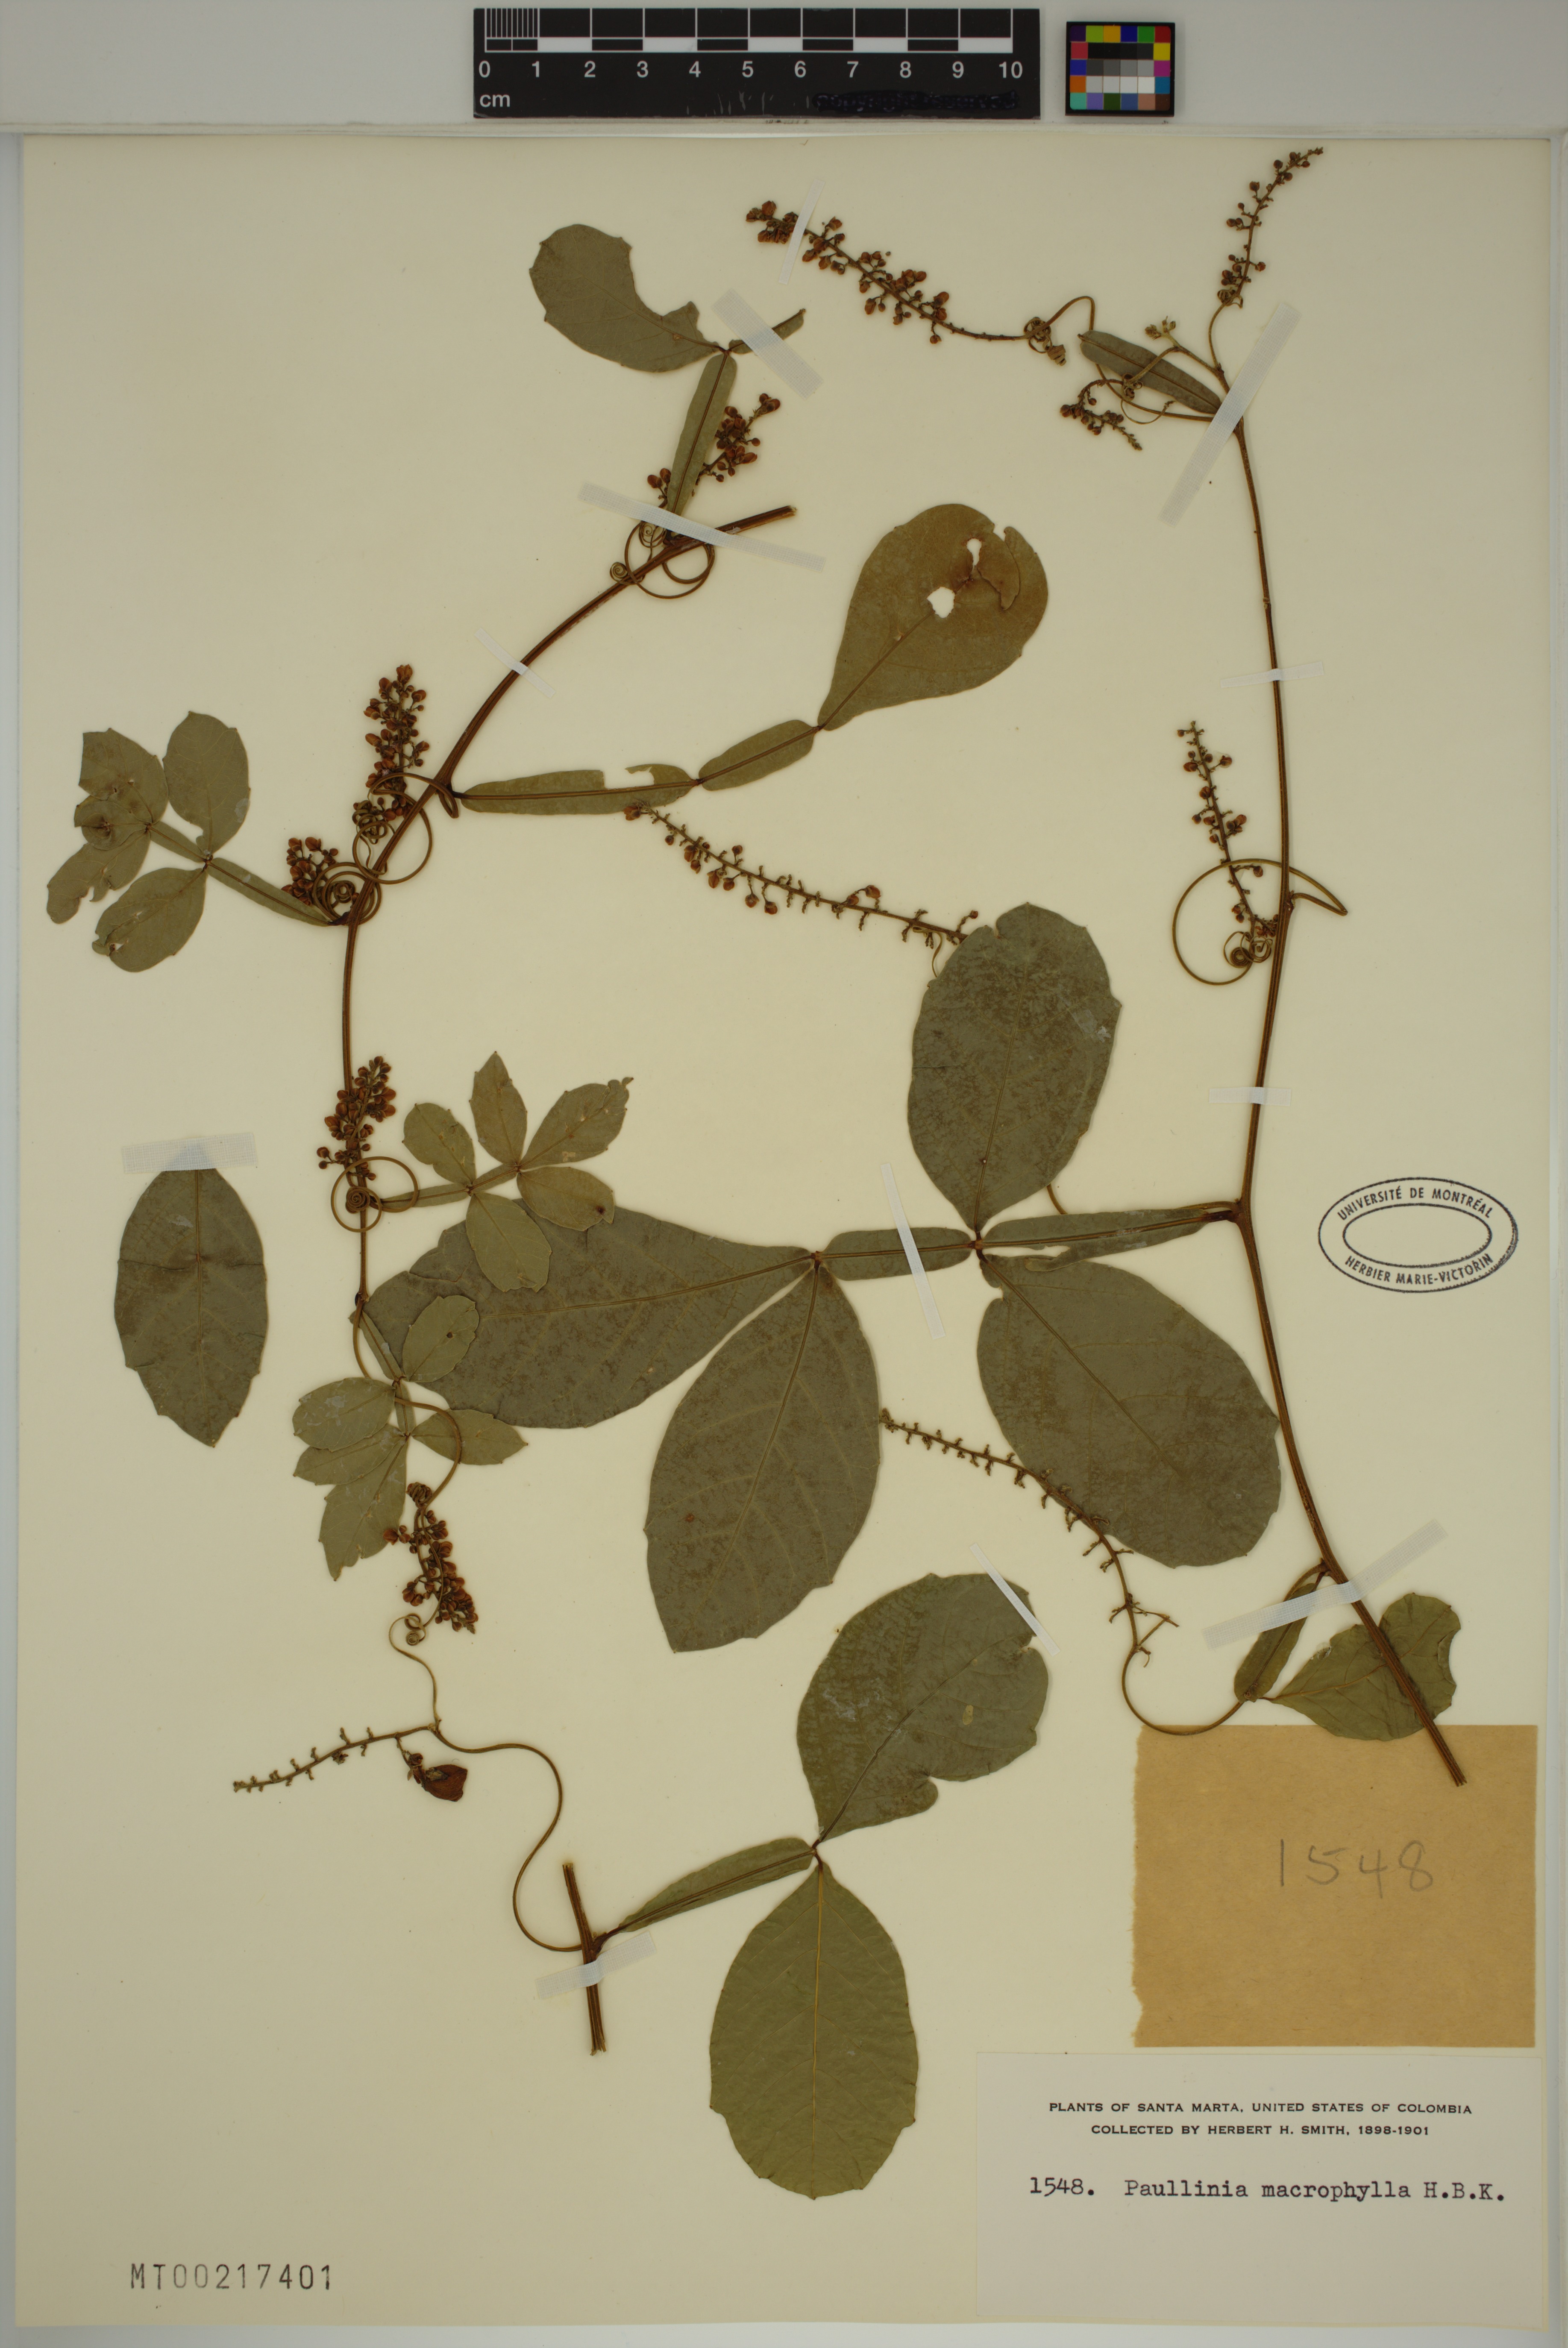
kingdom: Plantae
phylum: Tracheophyta
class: Magnoliopsida
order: Sapindales
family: Sapindaceae
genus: Paullinia
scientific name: Paullinia macrophylla
